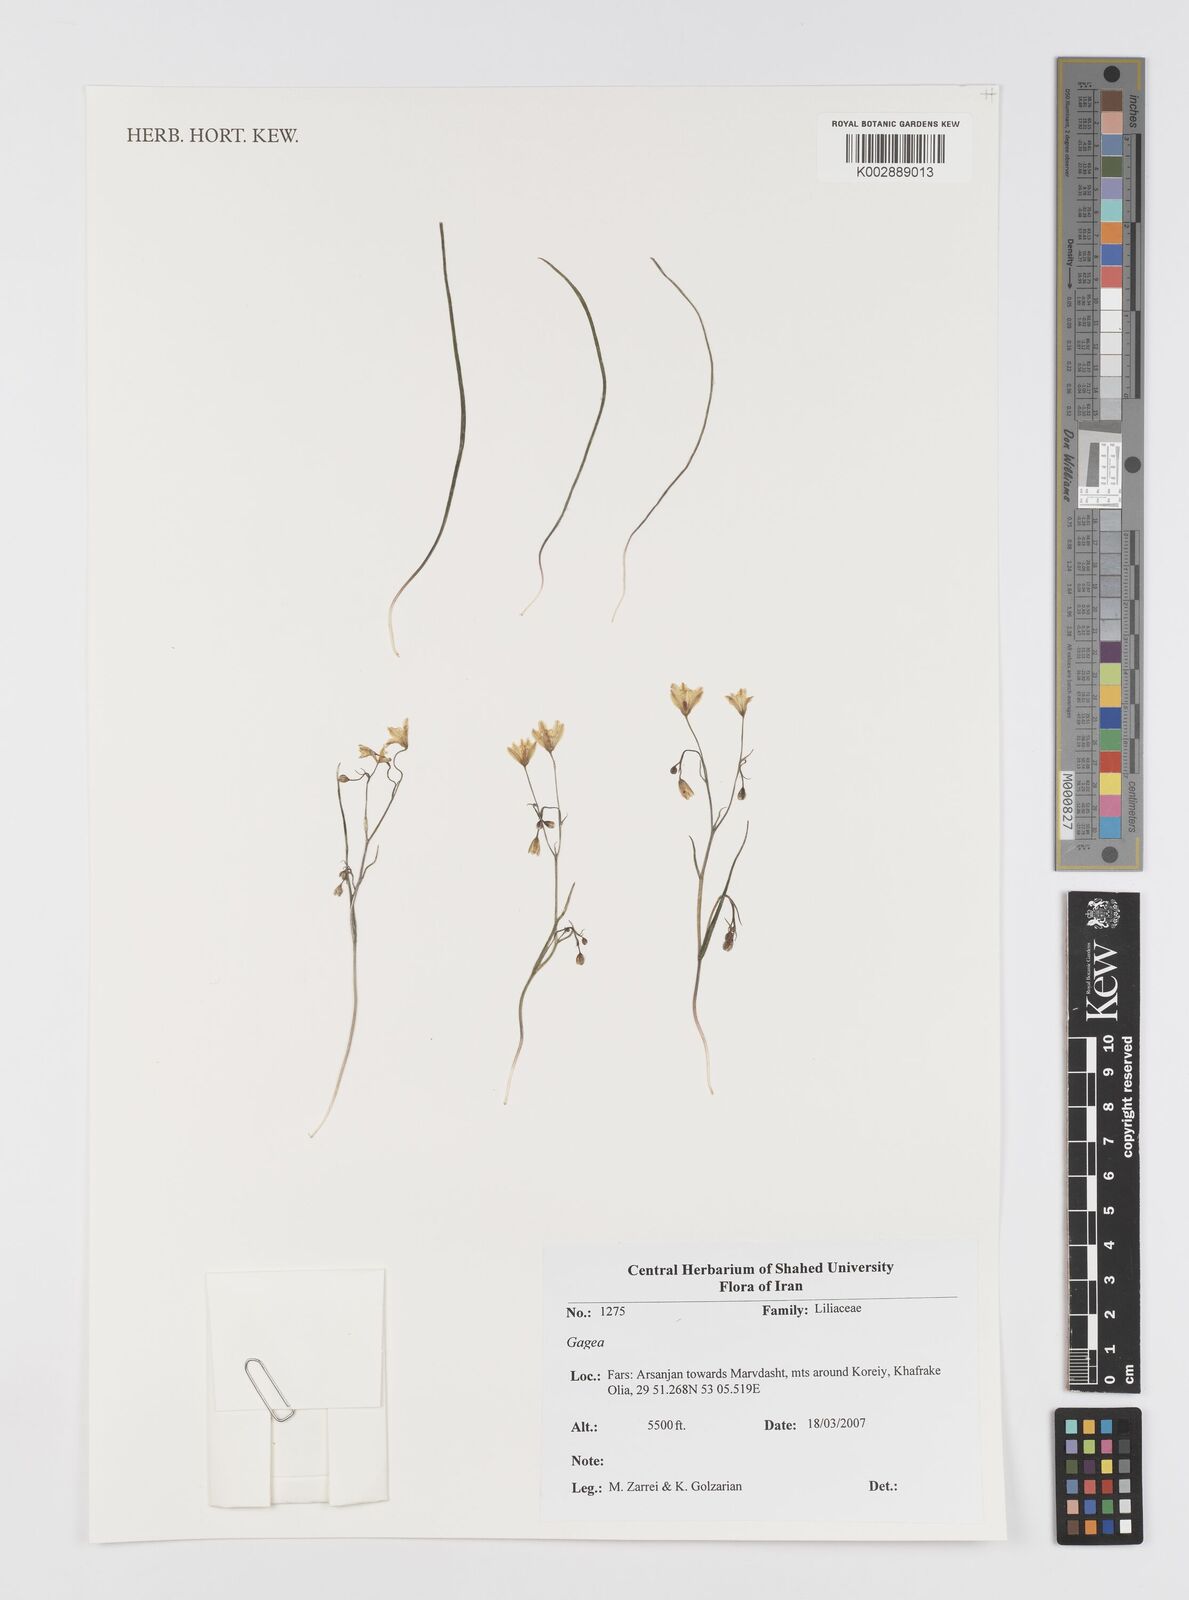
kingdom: Plantae
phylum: Tracheophyta
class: Liliopsida
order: Liliales
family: Liliaceae
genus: Gagea
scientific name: Gagea
